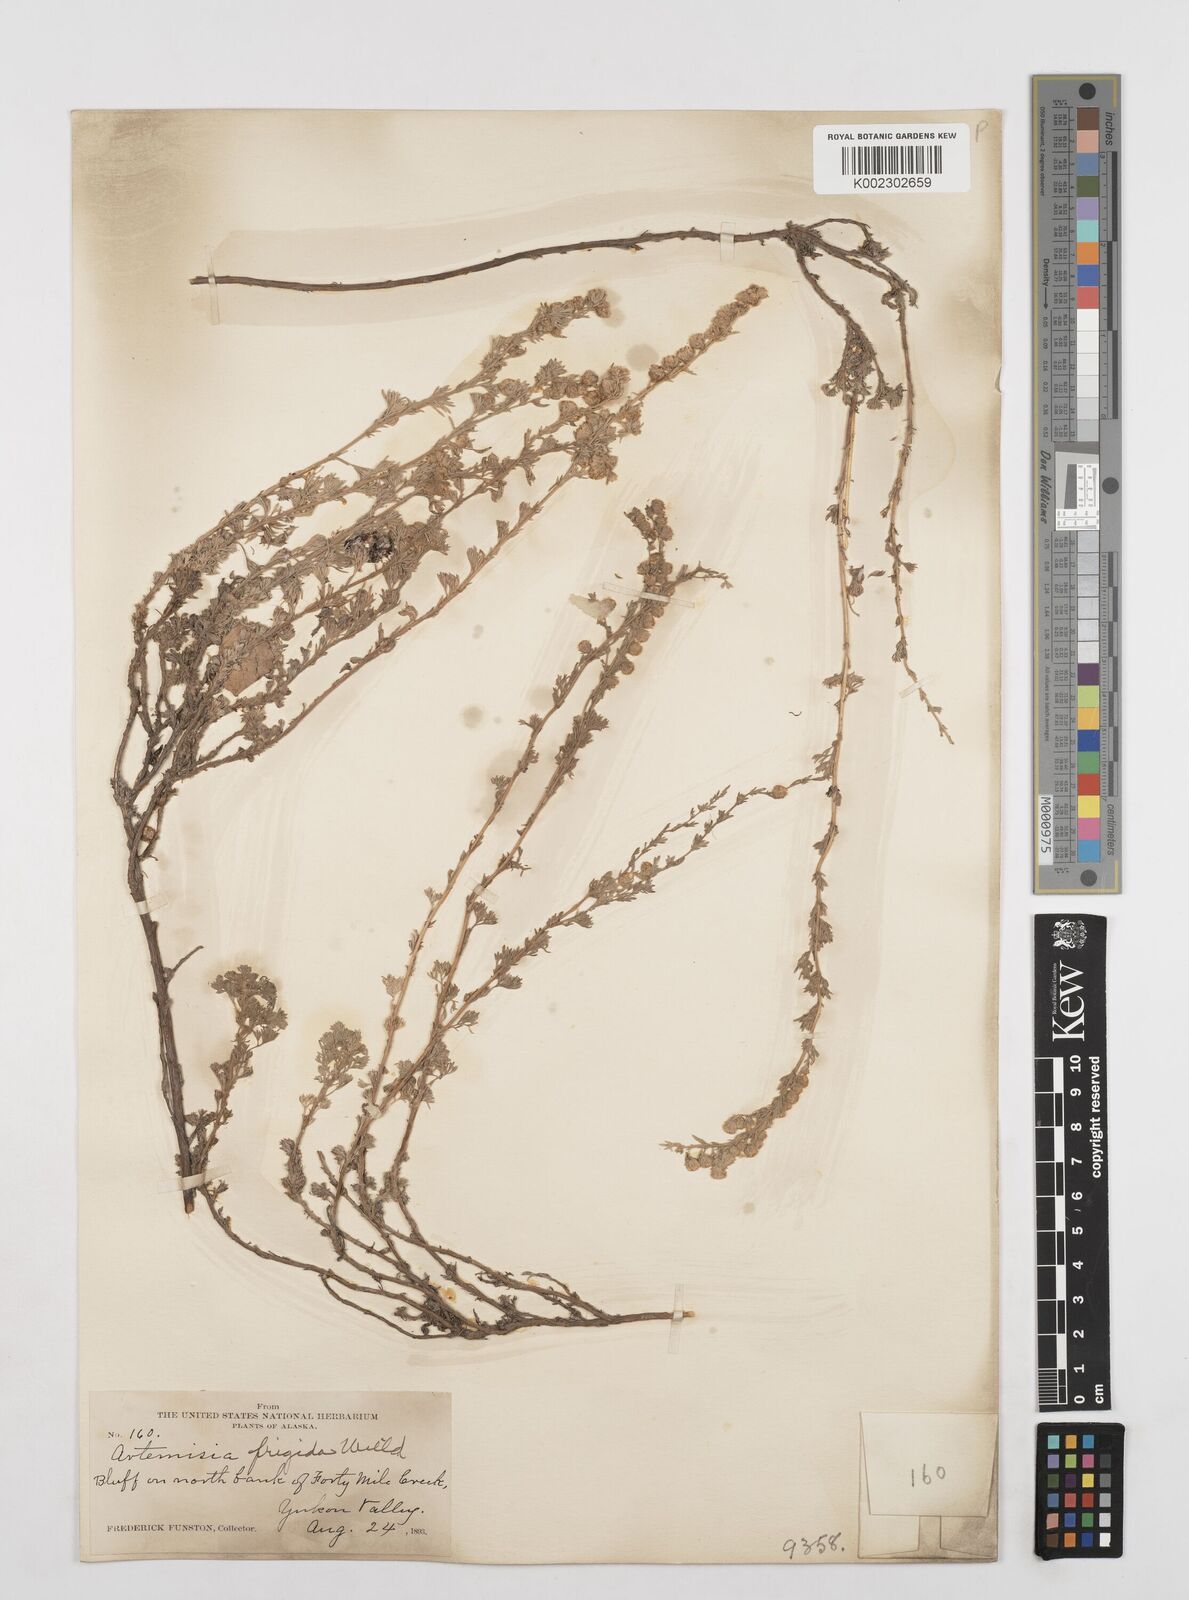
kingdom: Plantae
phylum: Tracheophyta
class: Magnoliopsida
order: Asterales
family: Asteraceae
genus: Artemisia
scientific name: Artemisia frigida
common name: Prairie sagewort
